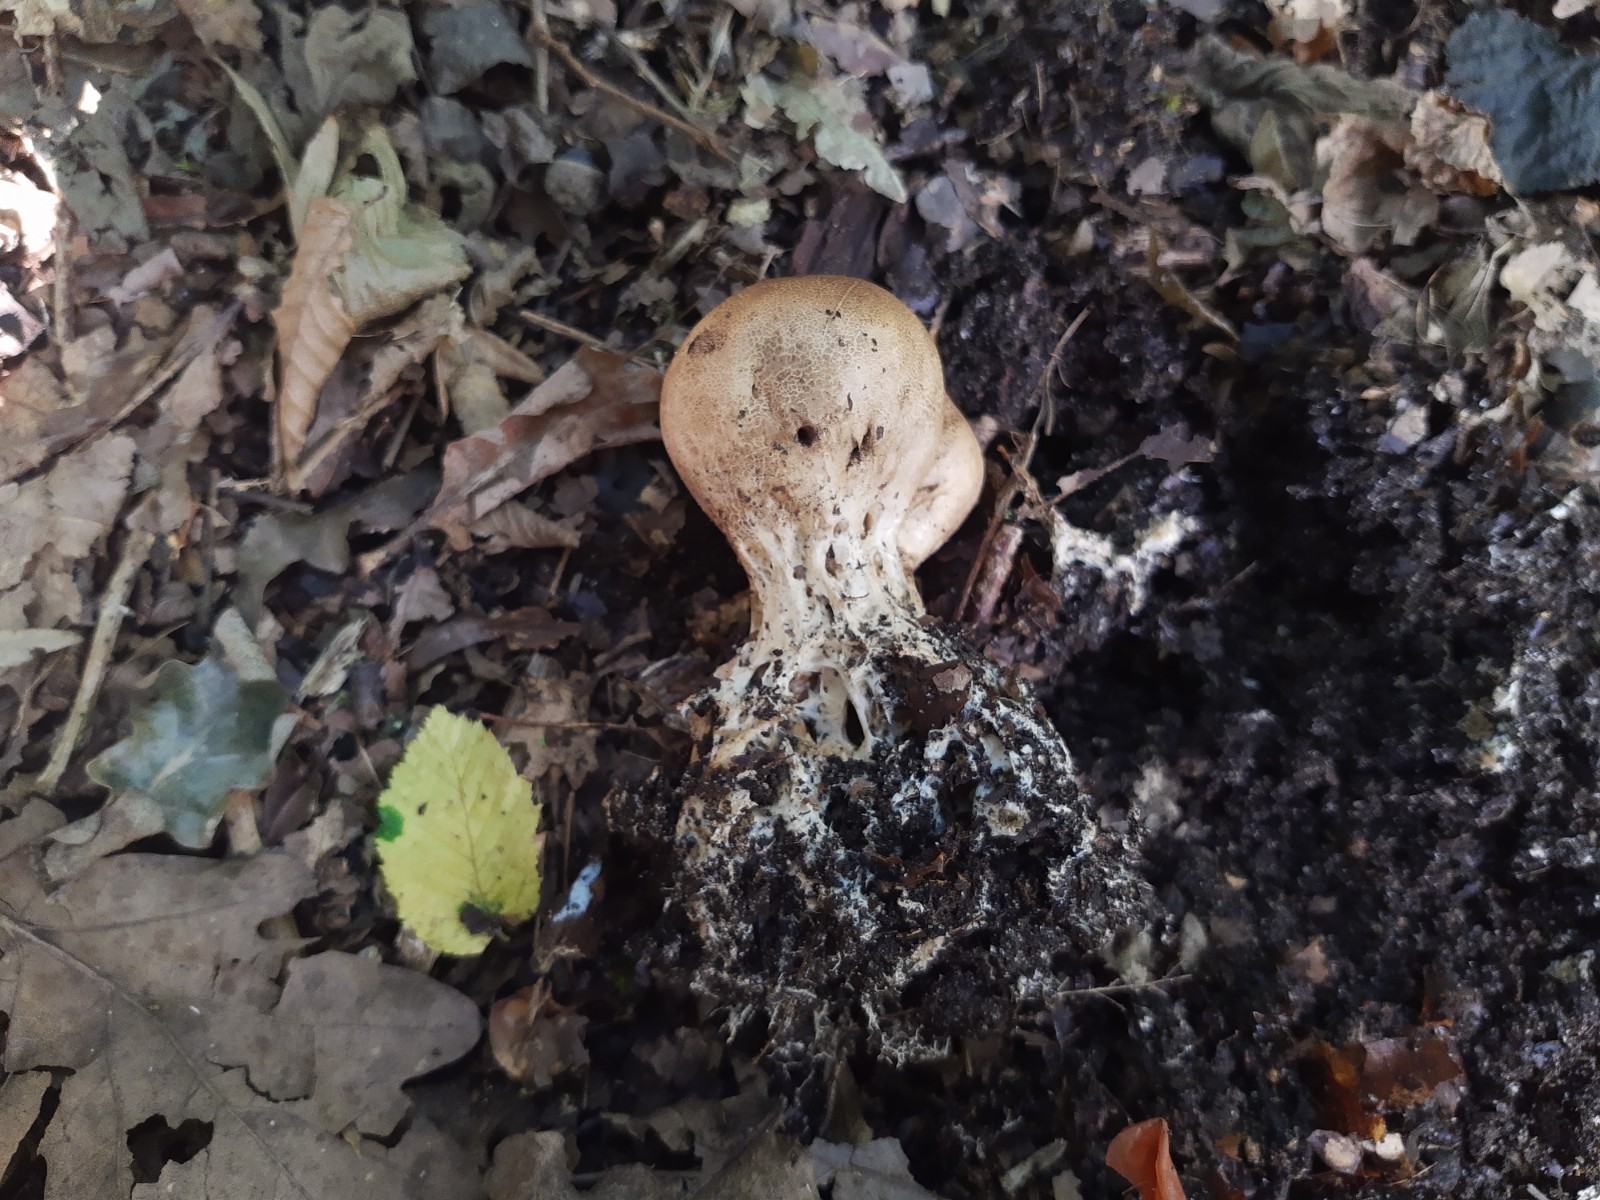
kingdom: Fungi
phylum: Basidiomycota
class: Agaricomycetes
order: Boletales
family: Sclerodermataceae
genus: Scleroderma
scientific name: Scleroderma verrucosum
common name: stilket bruskbold
